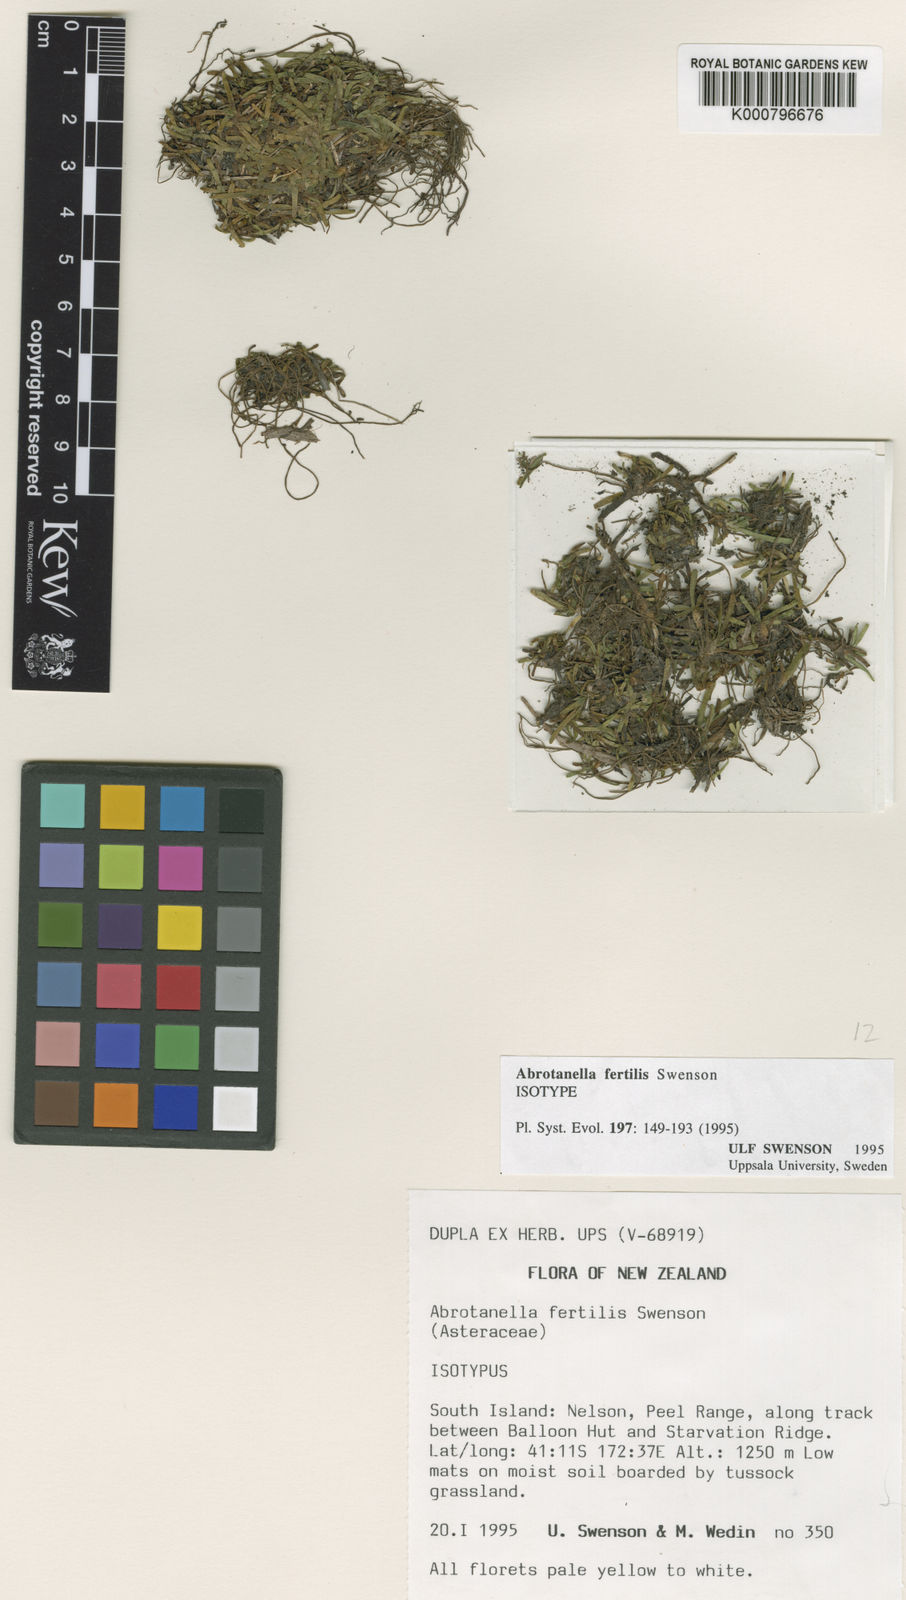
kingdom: Plantae
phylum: Tracheophyta
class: Magnoliopsida
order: Asterales
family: Asteraceae
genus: Abrotanella
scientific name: Abrotanella fertilis
